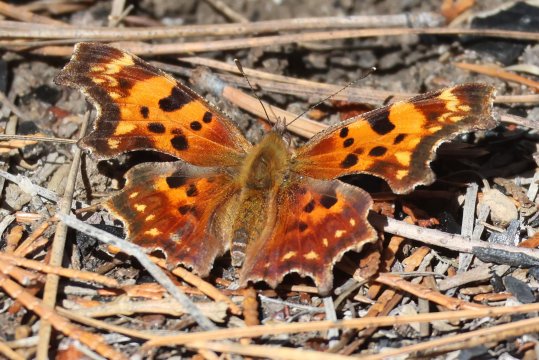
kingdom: Animalia
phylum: Arthropoda
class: Insecta
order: Lepidoptera
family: Nymphalidae
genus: Polygonia
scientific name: Polygonia satyrus
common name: Satyr Comma
